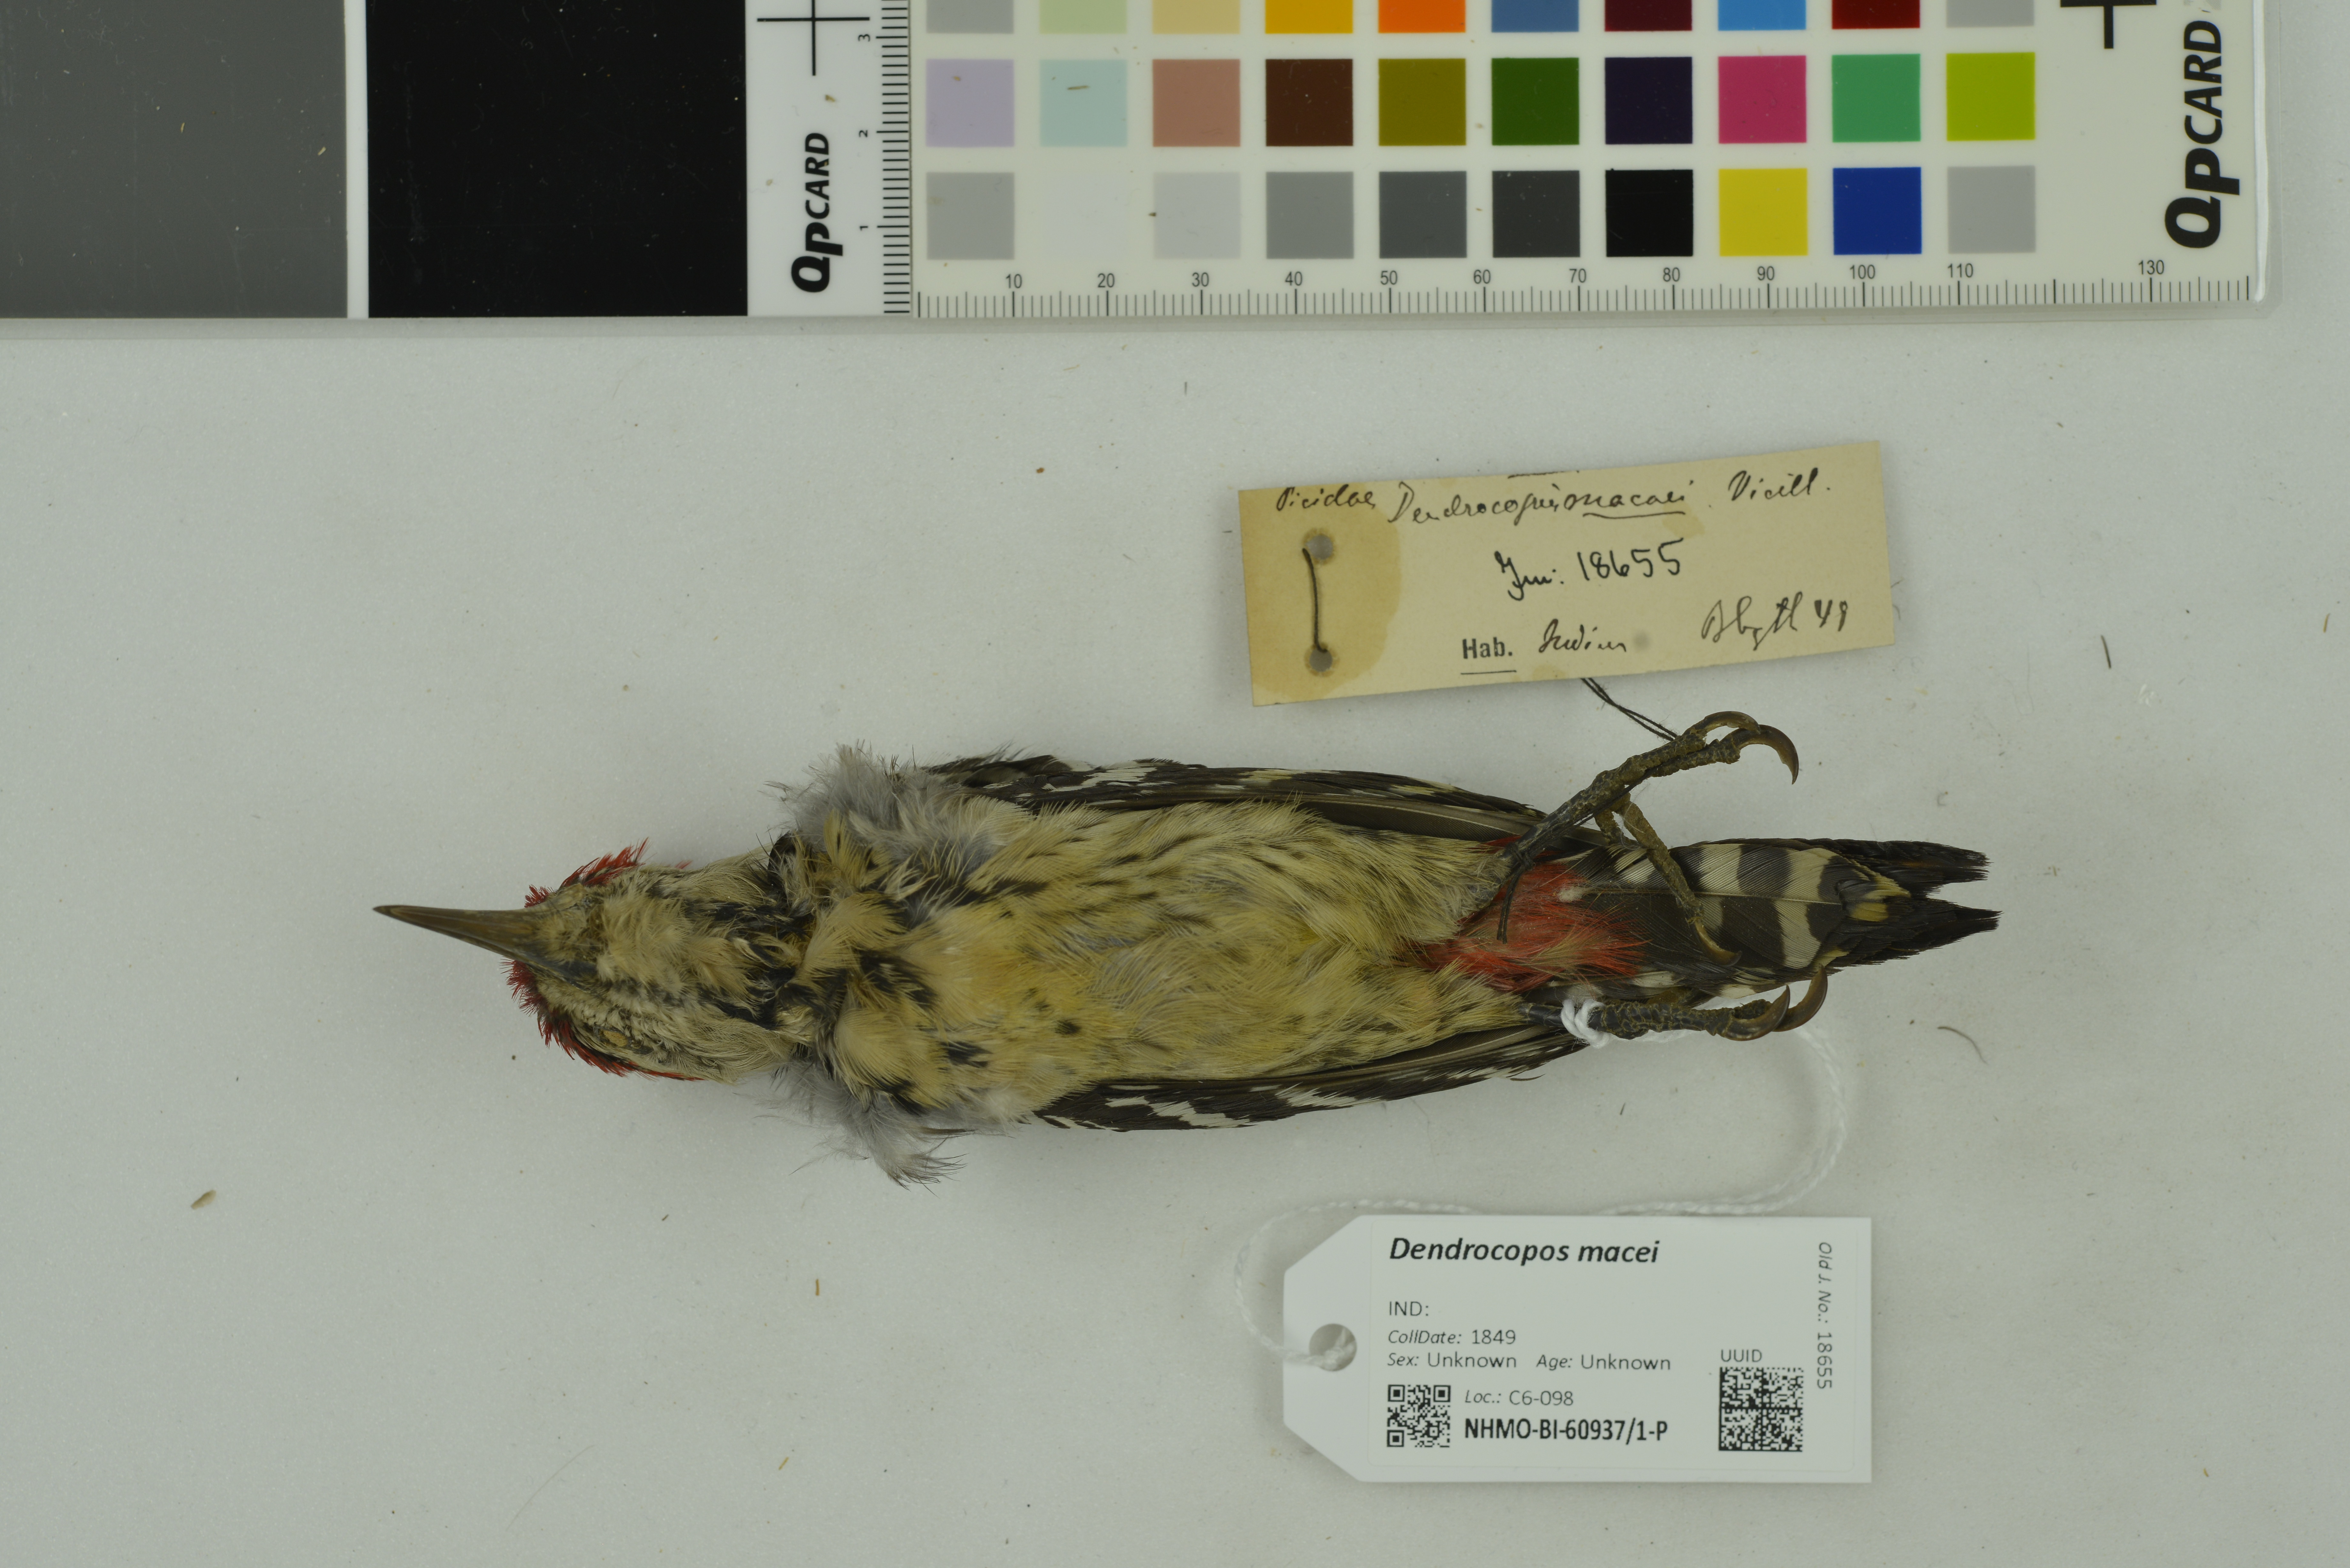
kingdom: Animalia
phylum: Chordata
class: Aves
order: Piciformes
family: Picidae
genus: Dendrocopos
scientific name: Dendrocopos macei
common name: Fulvous-breasted woodpecker
